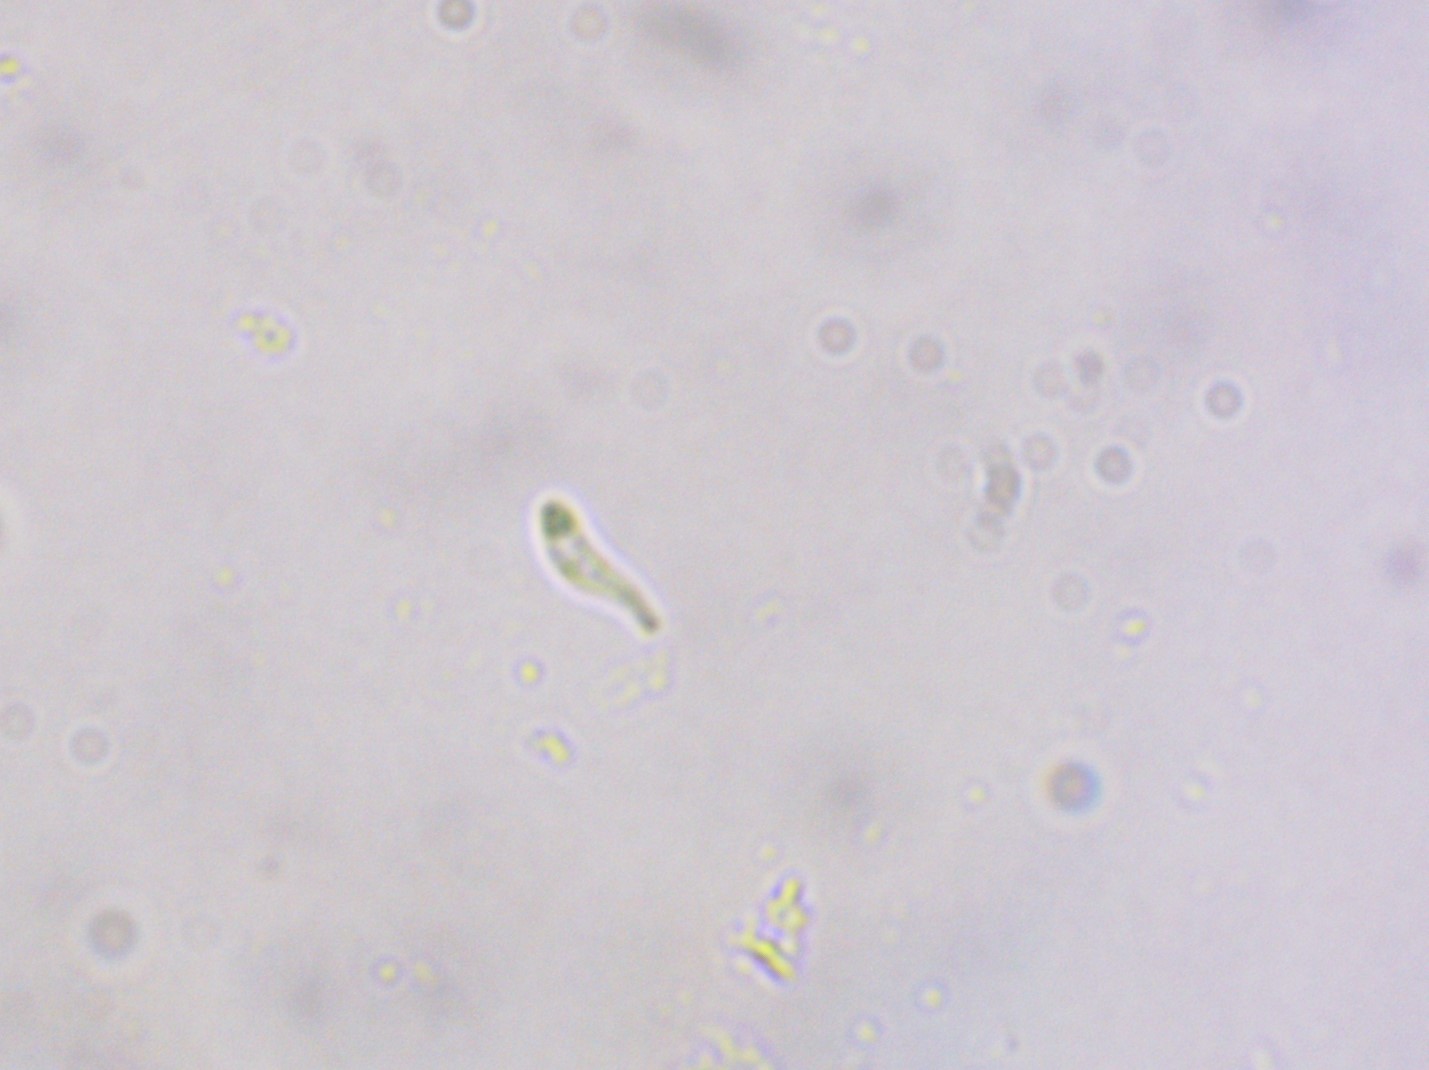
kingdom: Fungi
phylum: Ascomycota
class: Orbiliomycetes
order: Orbiliales
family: Orbiliaceae
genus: Orbilia
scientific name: Orbilia comma
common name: komma-voksskive
